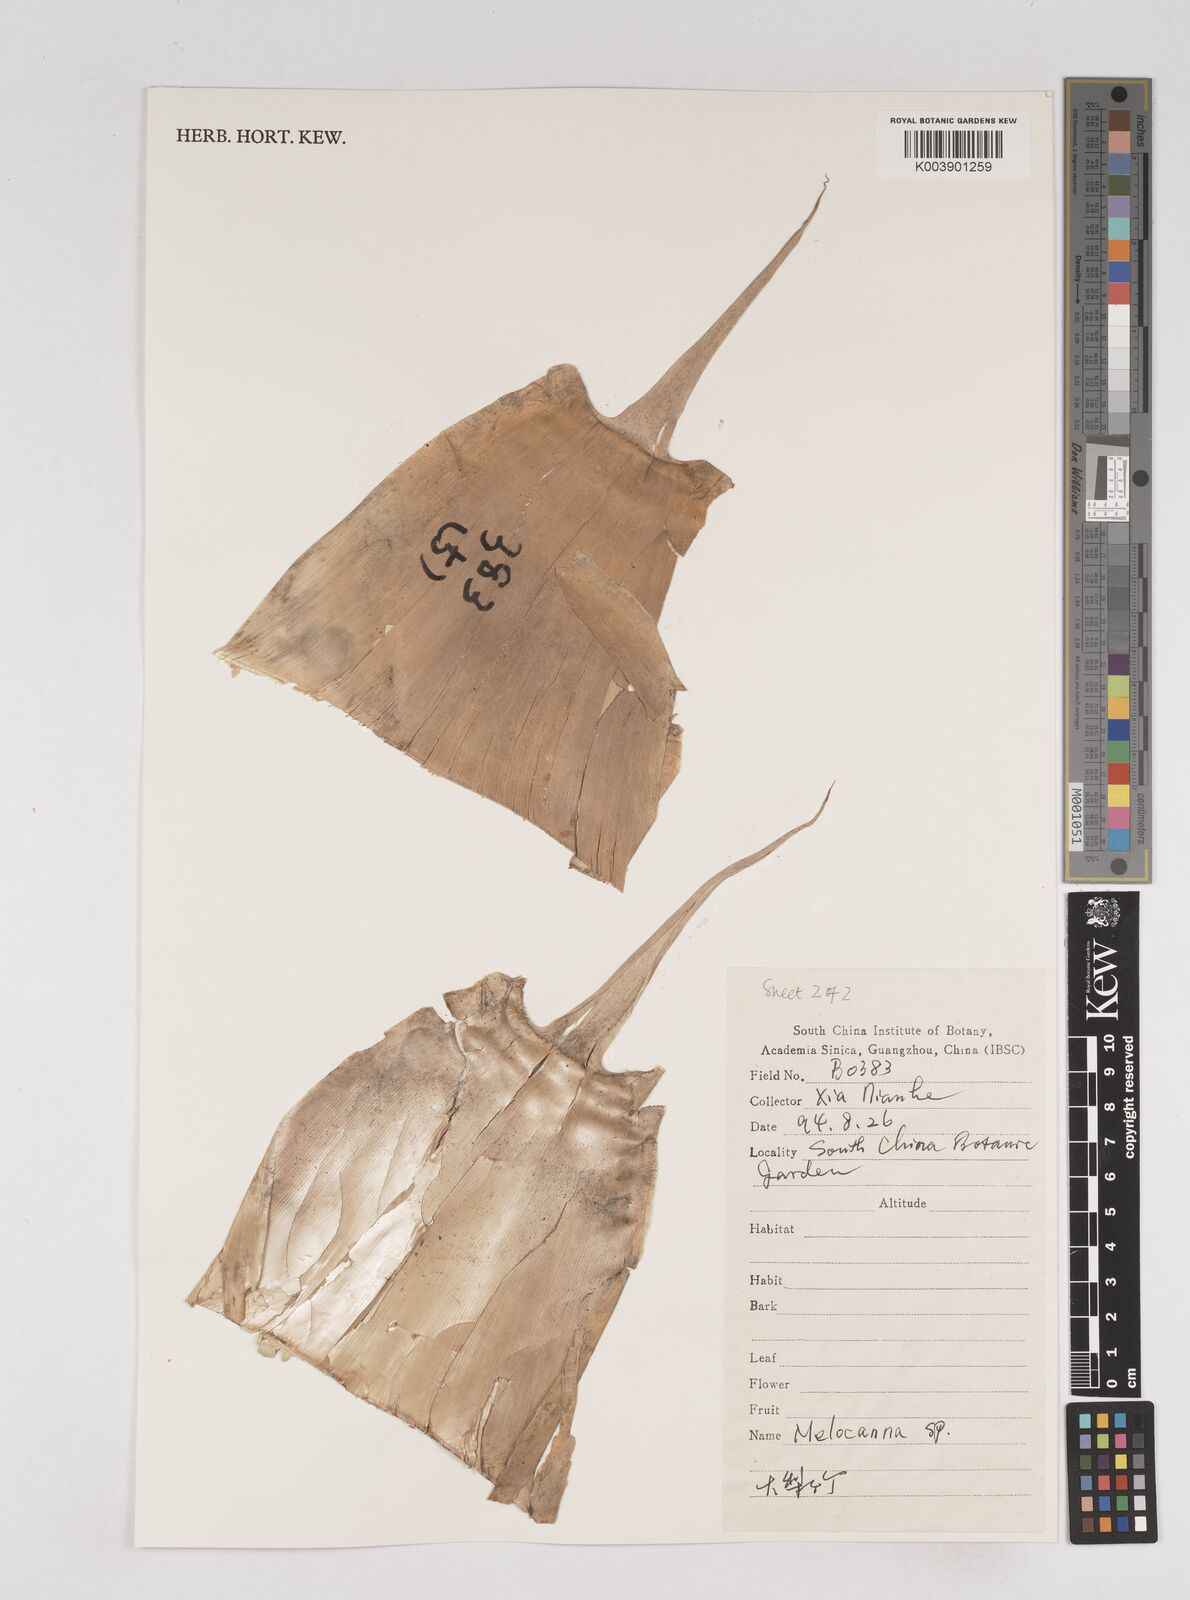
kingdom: Plantae
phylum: Tracheophyta
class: Liliopsida
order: Poales
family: Poaceae
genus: Melocanna
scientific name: Melocanna
